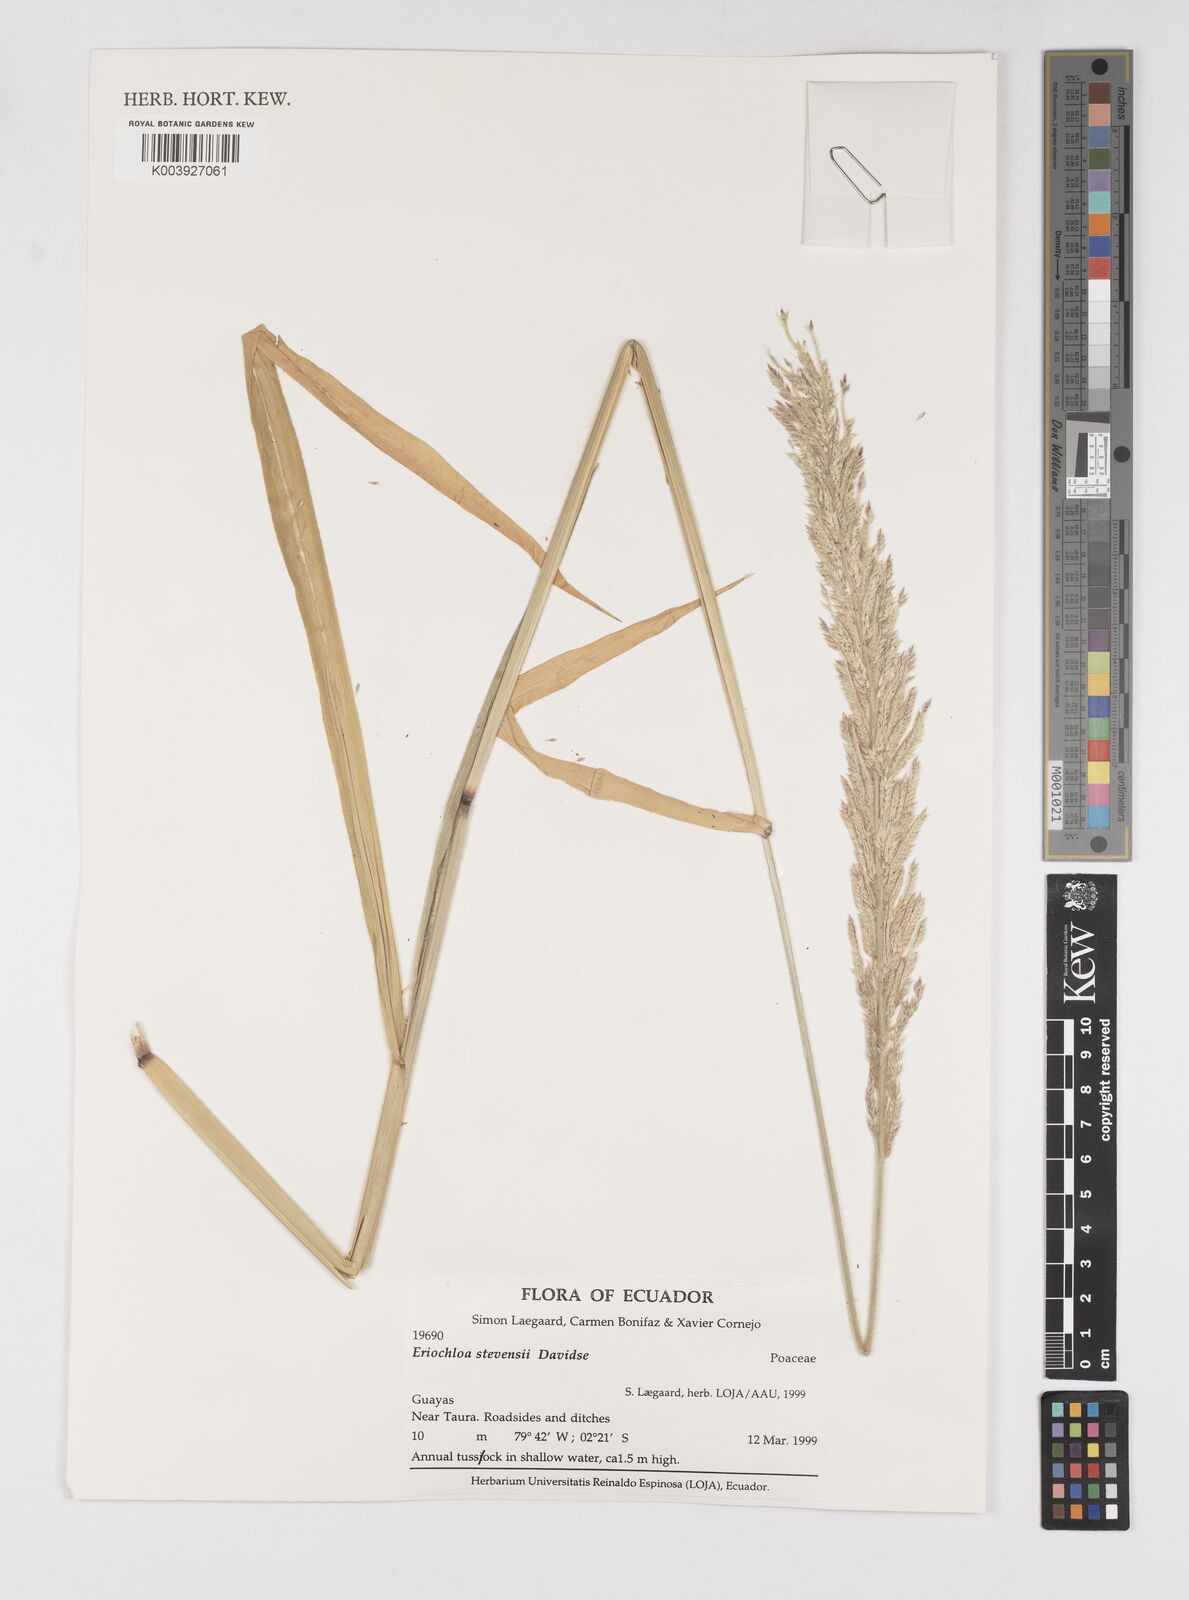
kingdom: Plantae
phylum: Tracheophyta
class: Liliopsida
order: Poales
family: Poaceae
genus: Eriochloa
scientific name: Eriochloa stevensii
